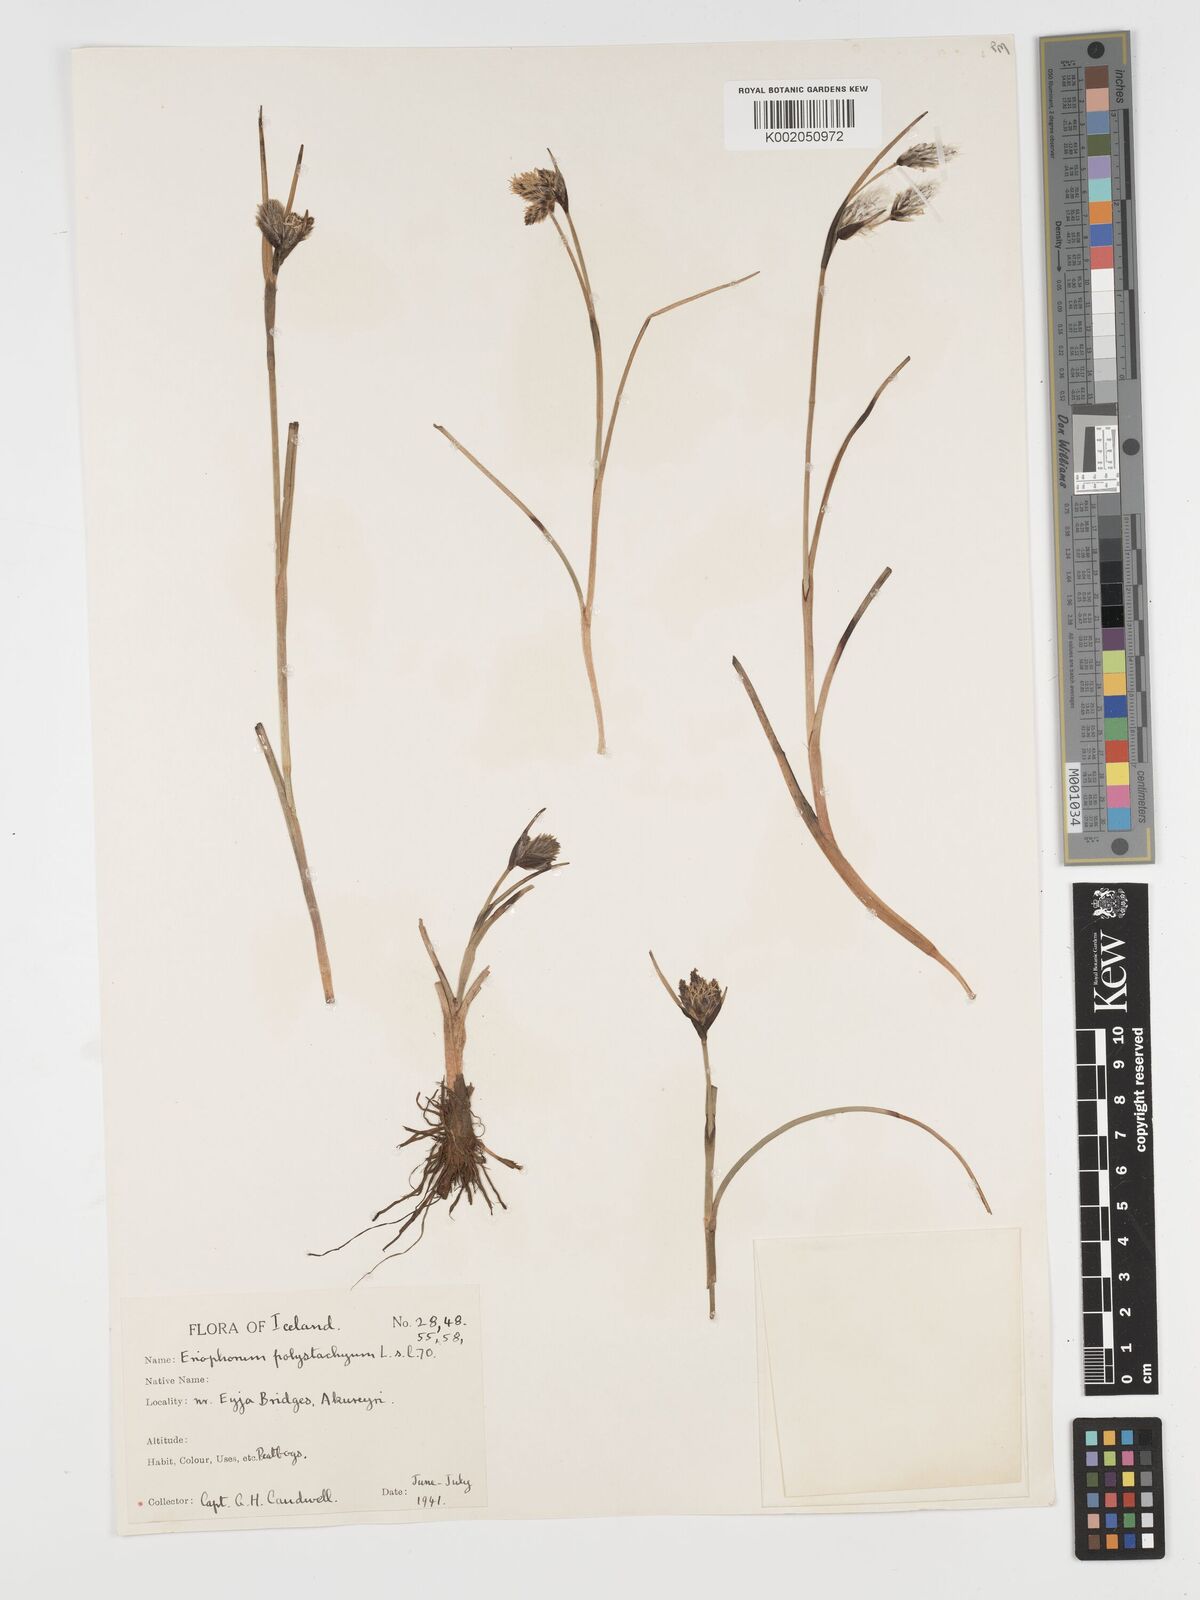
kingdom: Plantae
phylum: Tracheophyta
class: Liliopsida
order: Poales
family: Cyperaceae
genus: Eriophorum
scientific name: Eriophorum angustifolium
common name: Common cottongrass
